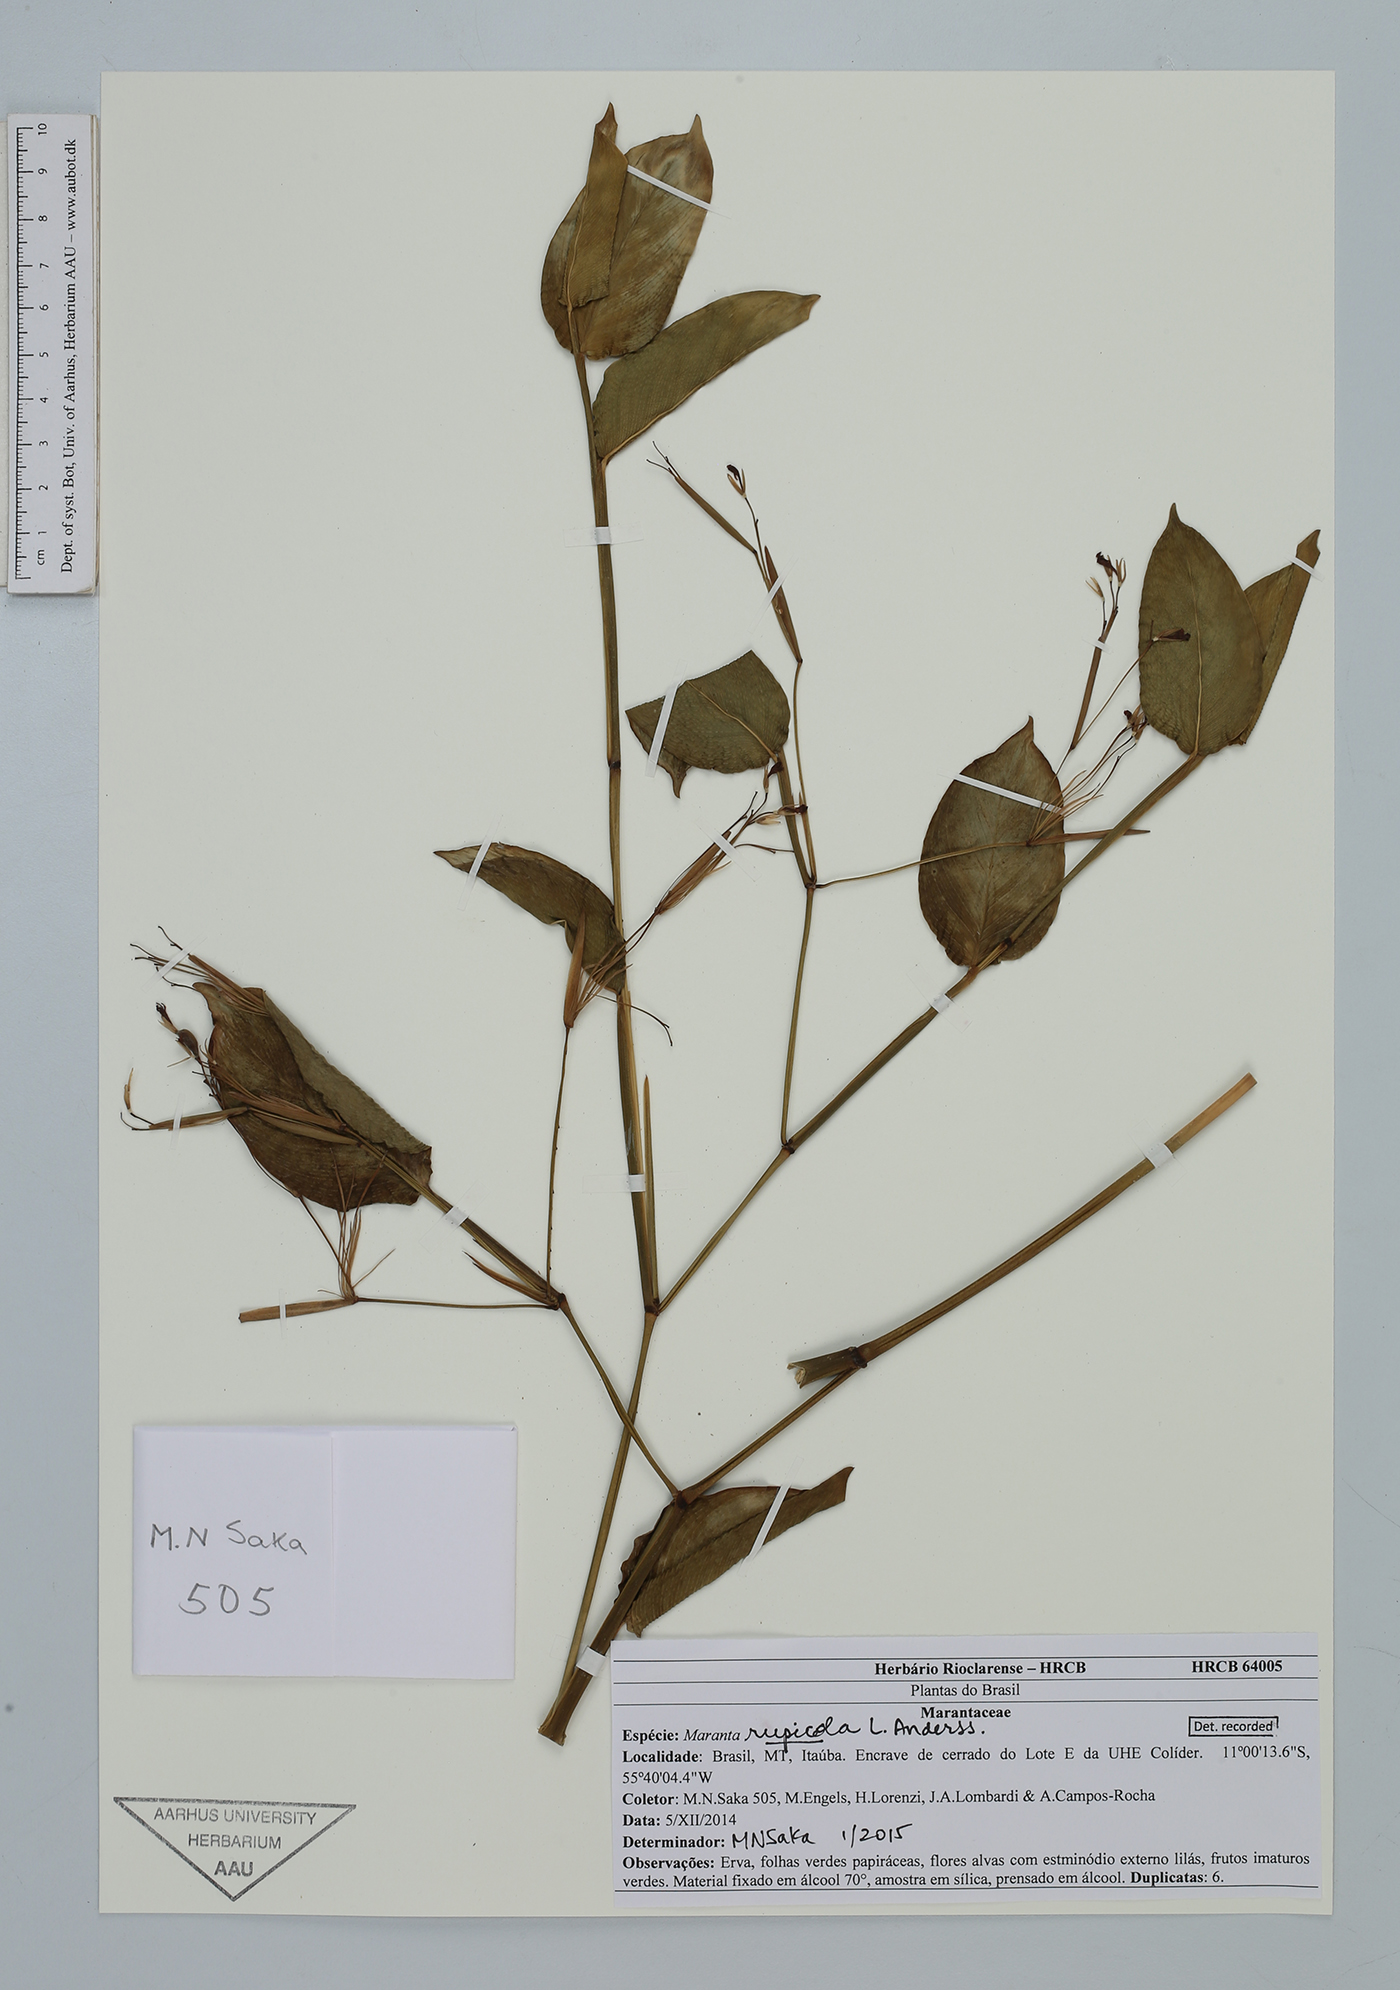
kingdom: Plantae
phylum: Tracheophyta
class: Liliopsida
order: Zingiberales
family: Marantaceae
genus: Maranta
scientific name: Maranta rupicola
